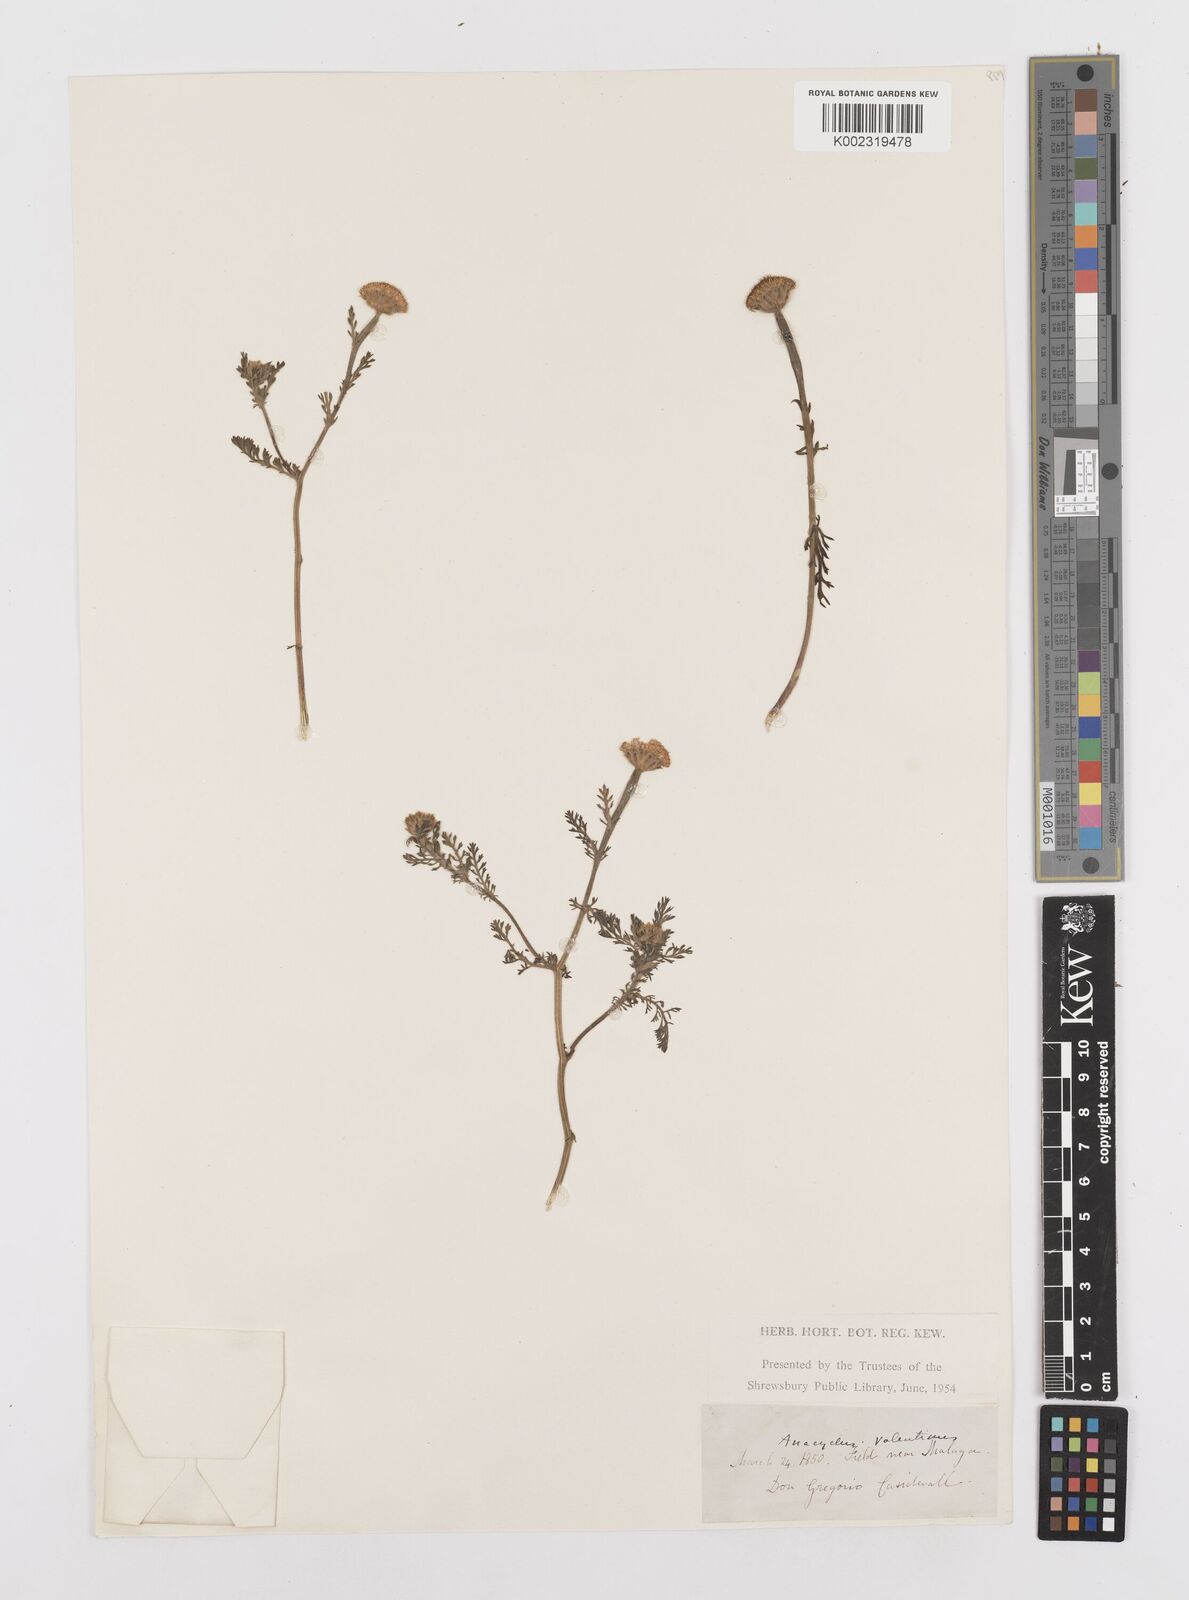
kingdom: Plantae
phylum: Tracheophyta
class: Magnoliopsida
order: Asterales
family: Asteraceae
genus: Anacyclus
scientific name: Anacyclus valentinus
